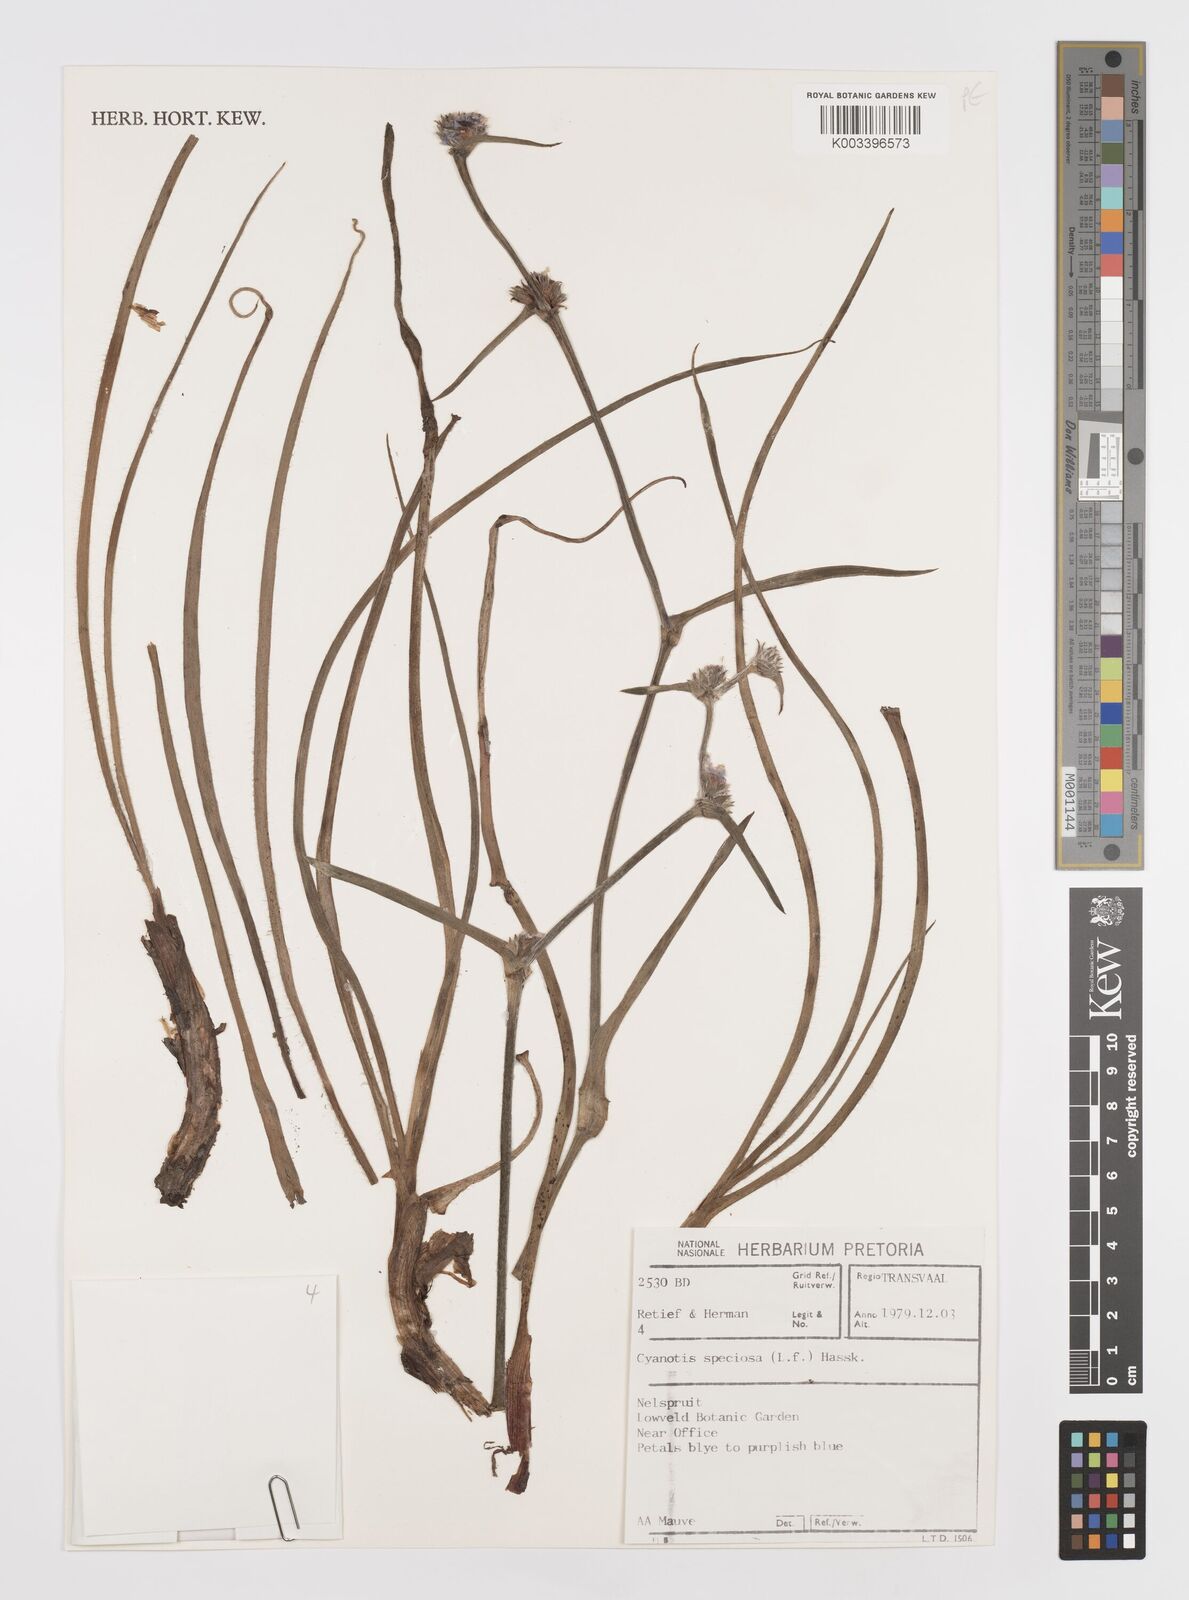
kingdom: Plantae
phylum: Tracheophyta
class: Liliopsida
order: Commelinales
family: Commelinaceae
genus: Cyanotis
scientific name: Cyanotis speciosa
